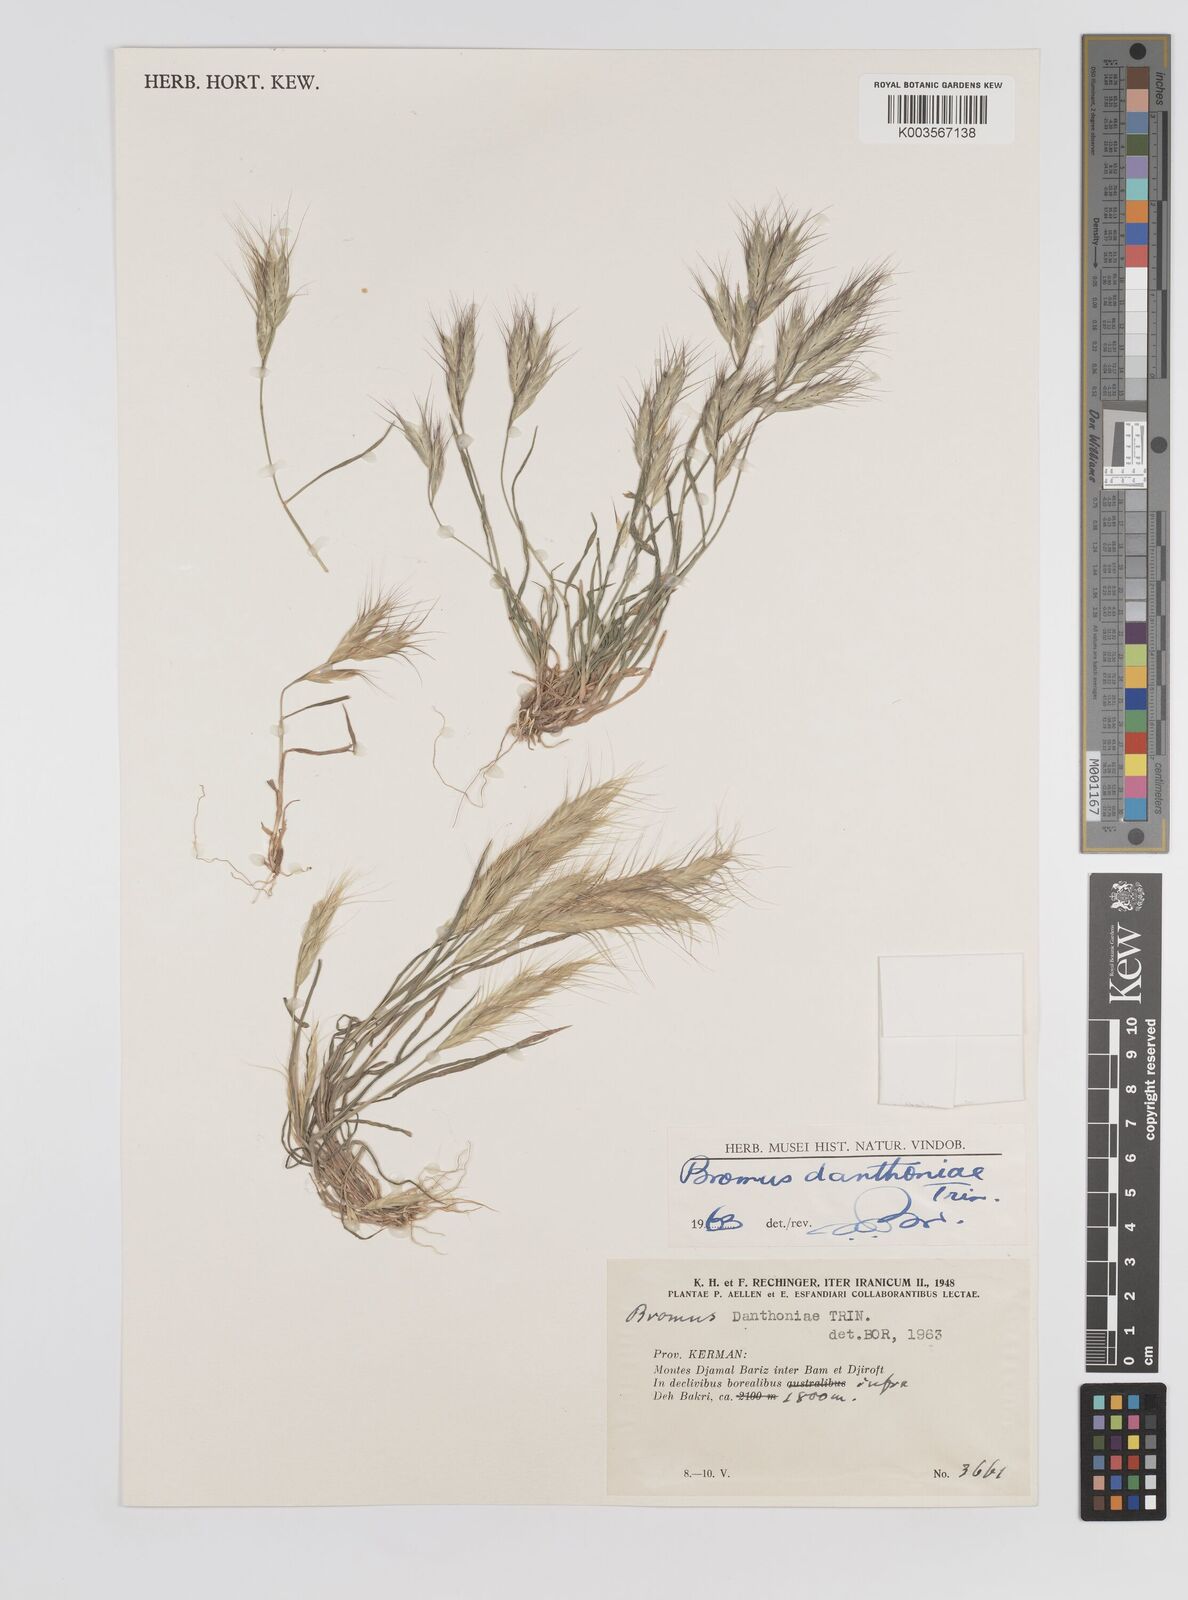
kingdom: Plantae
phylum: Tracheophyta
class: Liliopsida
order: Poales
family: Poaceae
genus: Bromus
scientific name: Bromus danthoniae
